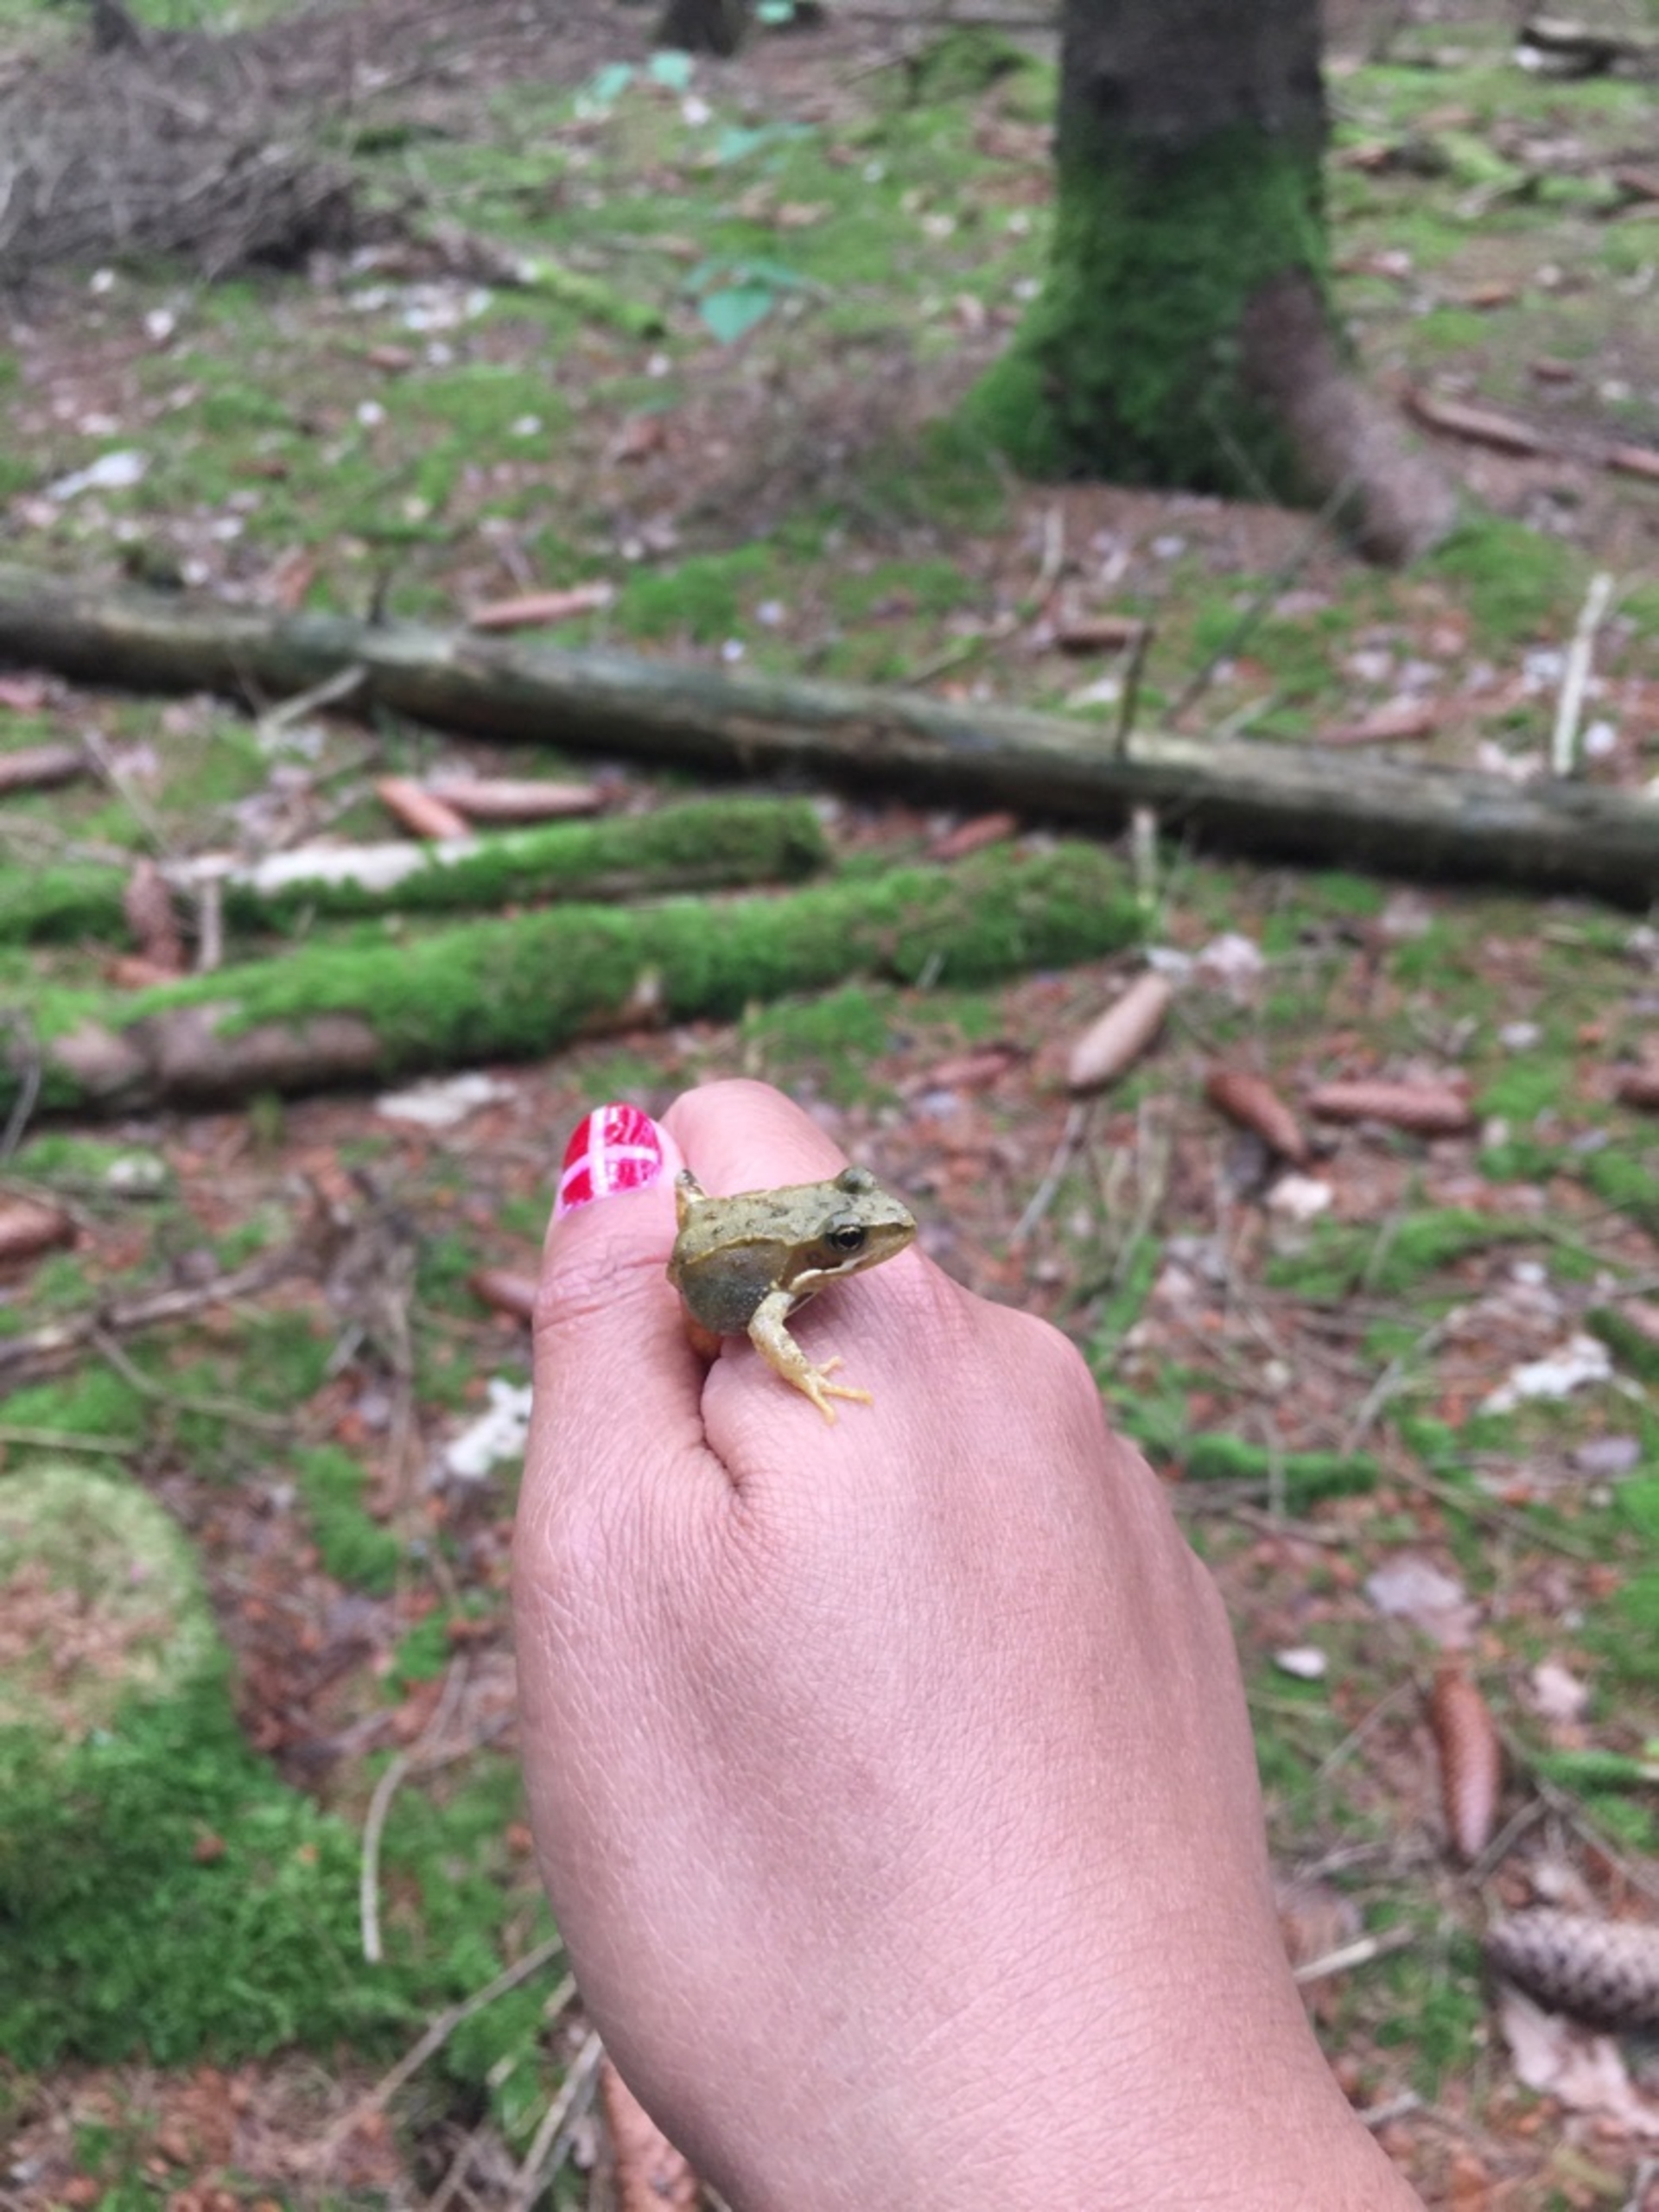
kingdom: Animalia
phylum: Chordata
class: Amphibia
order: Anura
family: Ranidae
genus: Rana
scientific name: Rana temporaria
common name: Butsnudet frø
